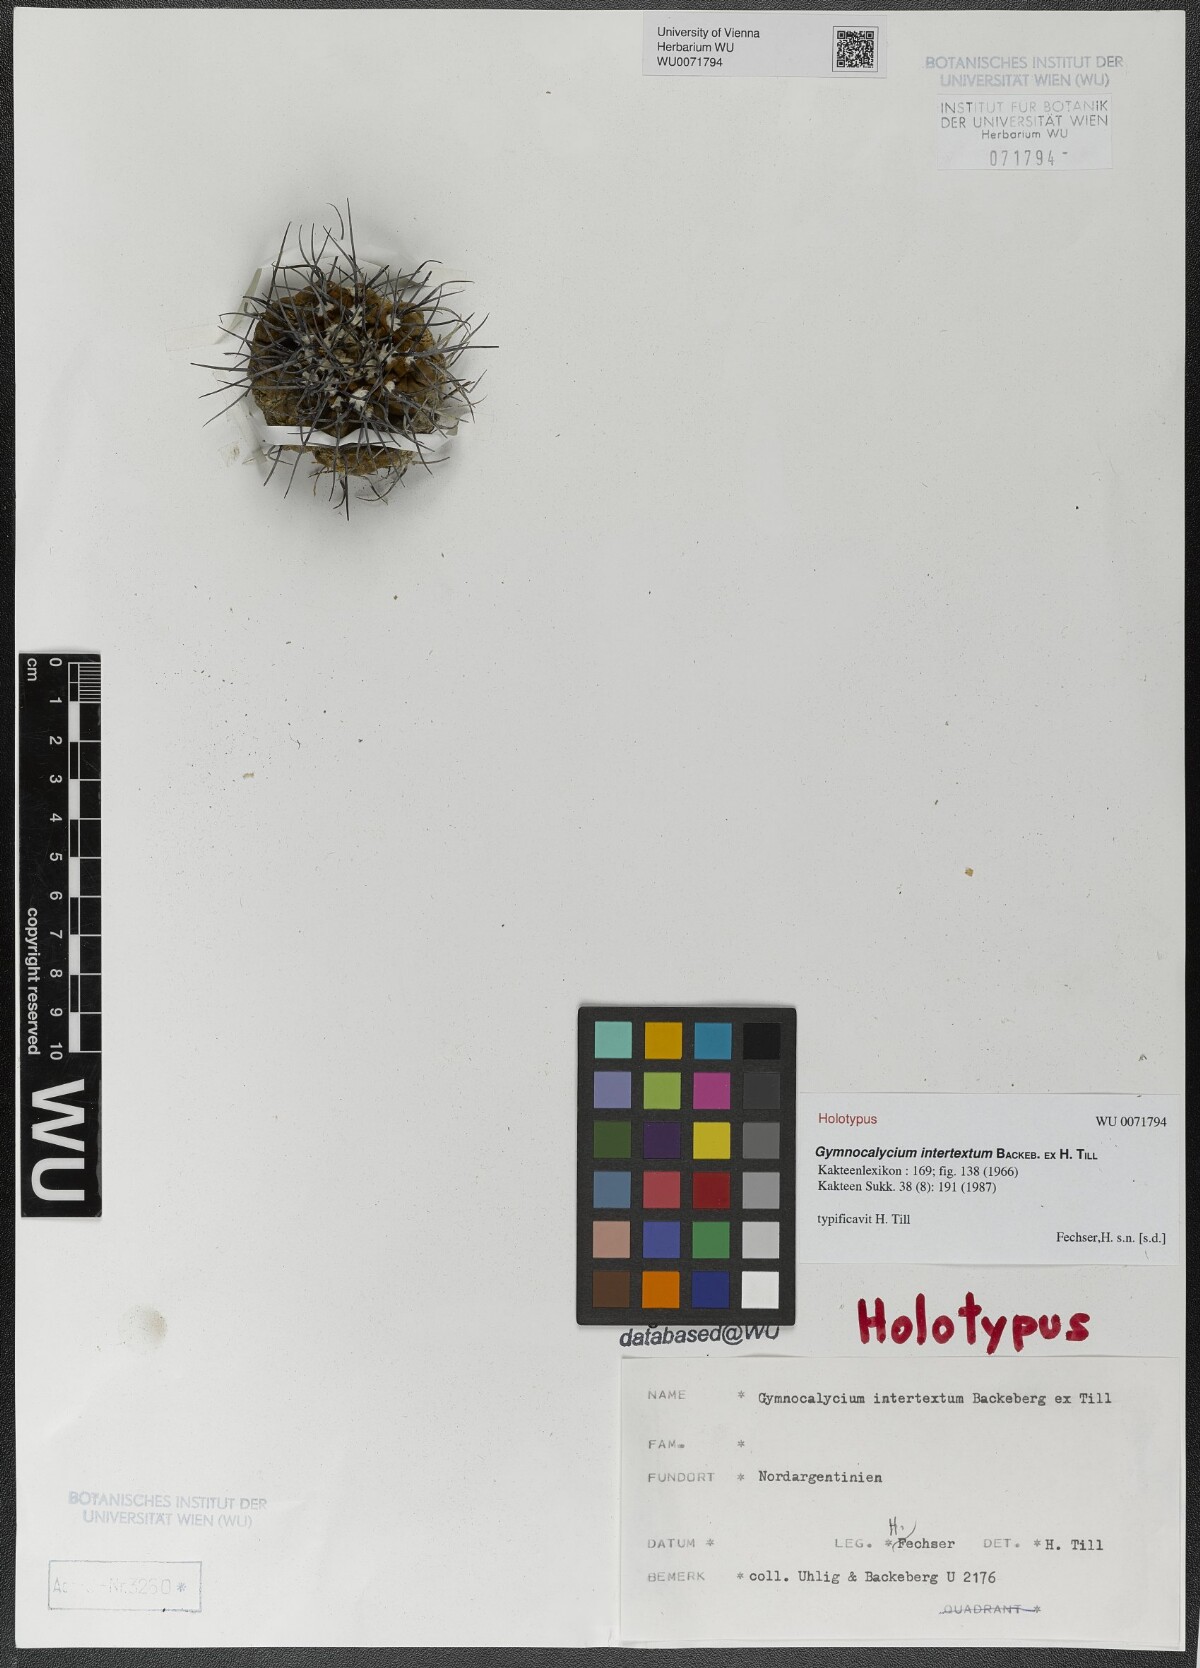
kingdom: Plantae
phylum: Tracheophyta
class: Magnoliopsida
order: Caryophyllales
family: Cactaceae
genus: Gymnocalycium
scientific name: Gymnocalycium ochoterenae
